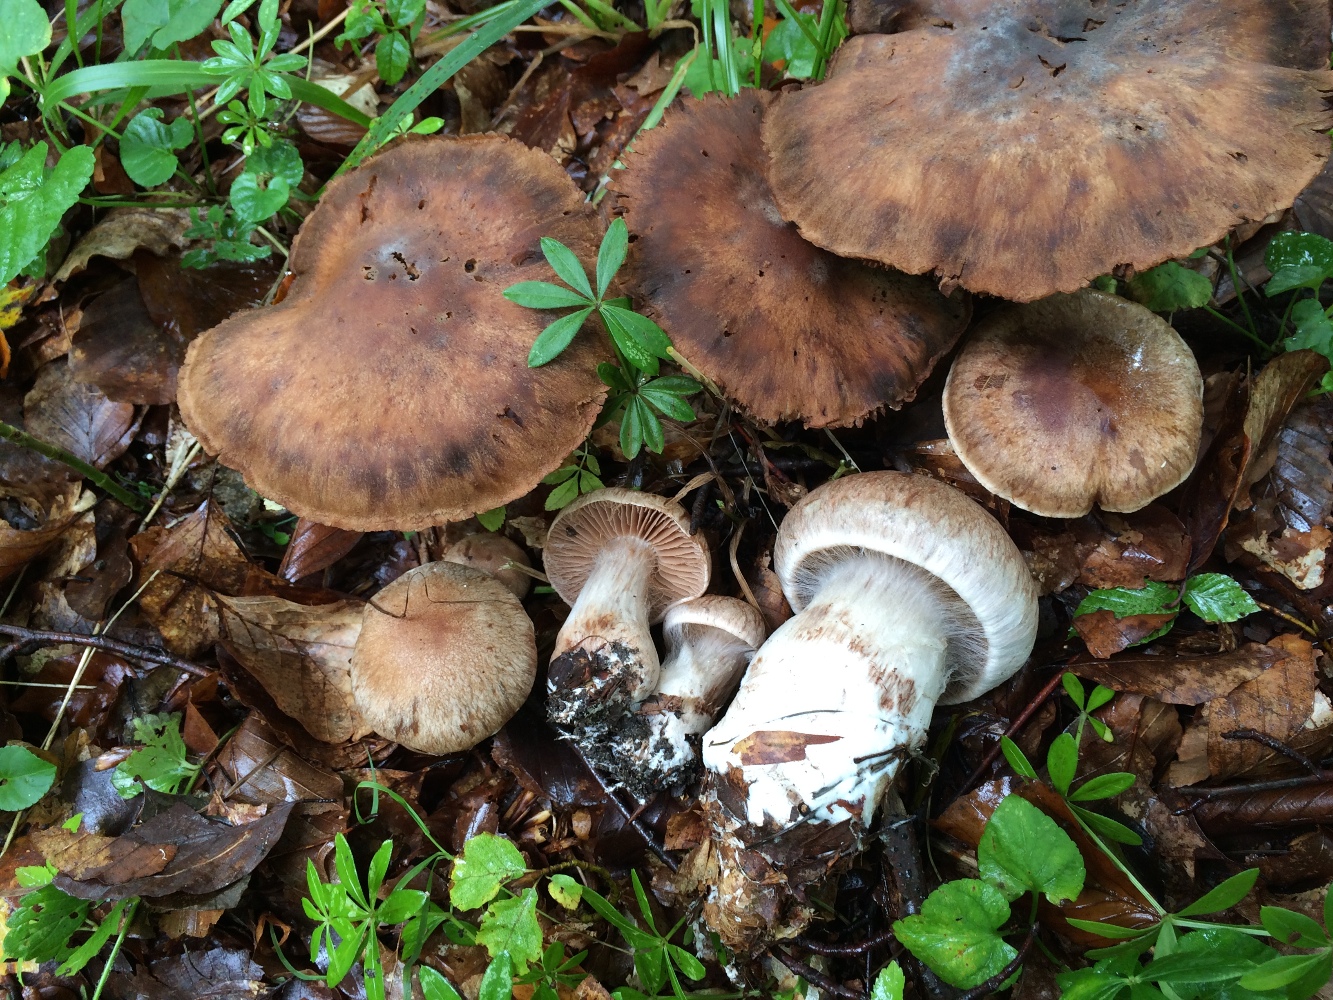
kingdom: Fungi
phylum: Basidiomycota
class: Agaricomycetes
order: Agaricales
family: Cortinariaceae
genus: Cortinarius
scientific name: Cortinarius
